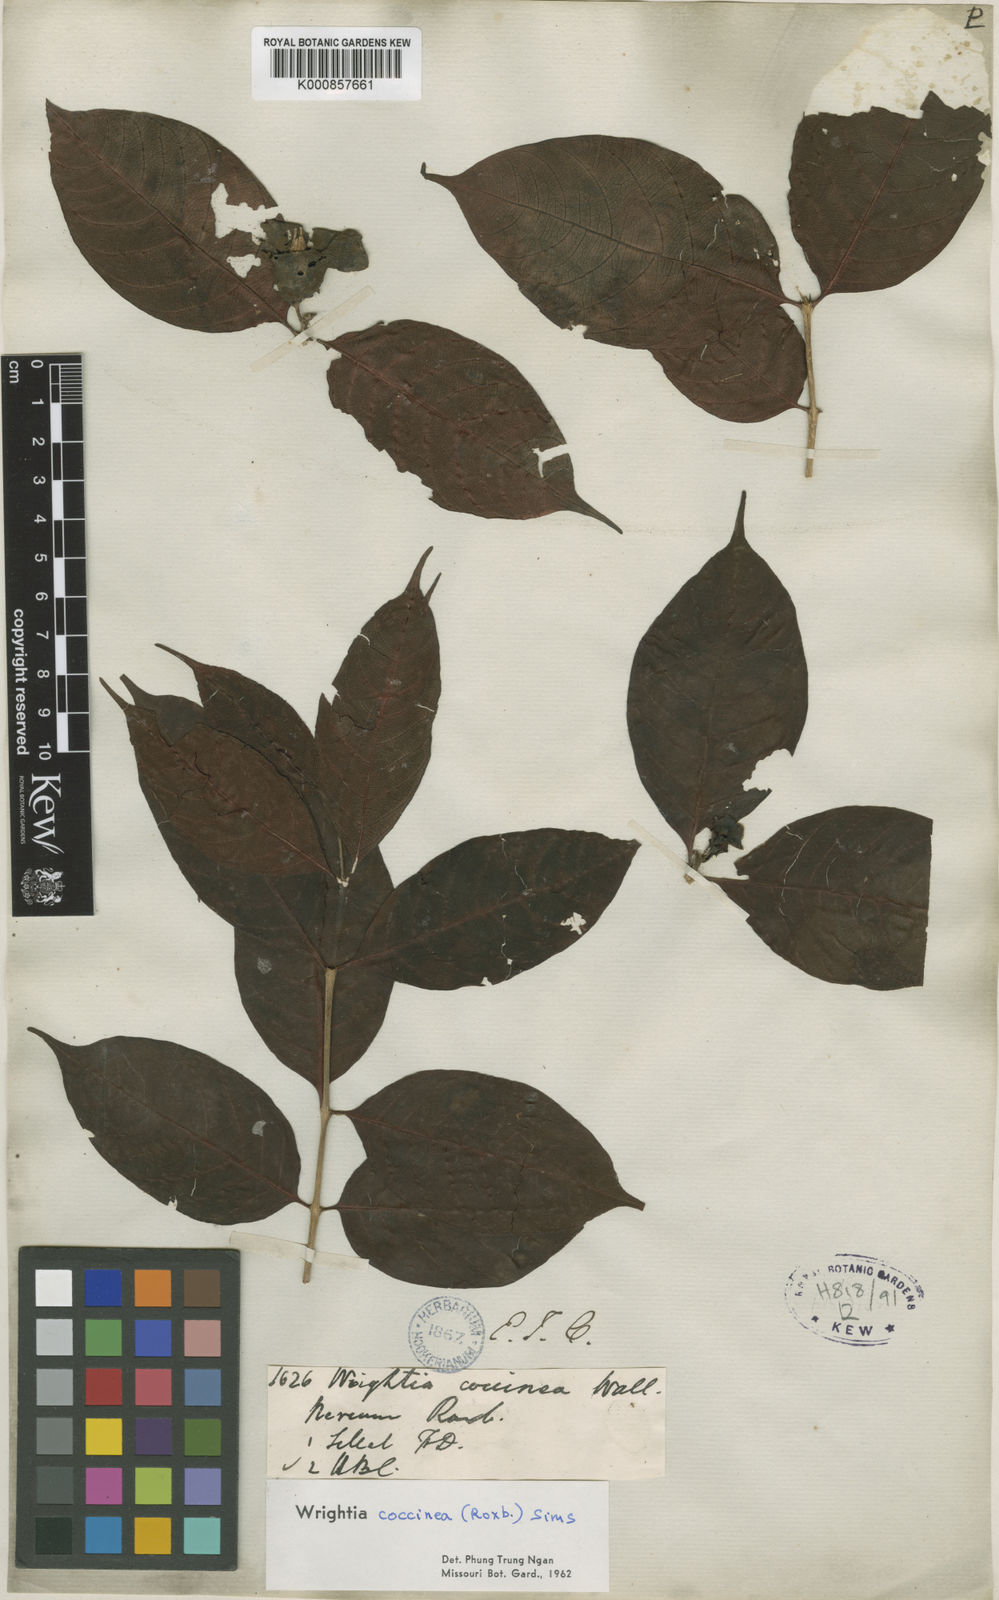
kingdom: Plantae
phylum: Tracheophyta
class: Magnoliopsida
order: Gentianales
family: Apocynaceae
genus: Wrightia
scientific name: Wrightia coccinea
